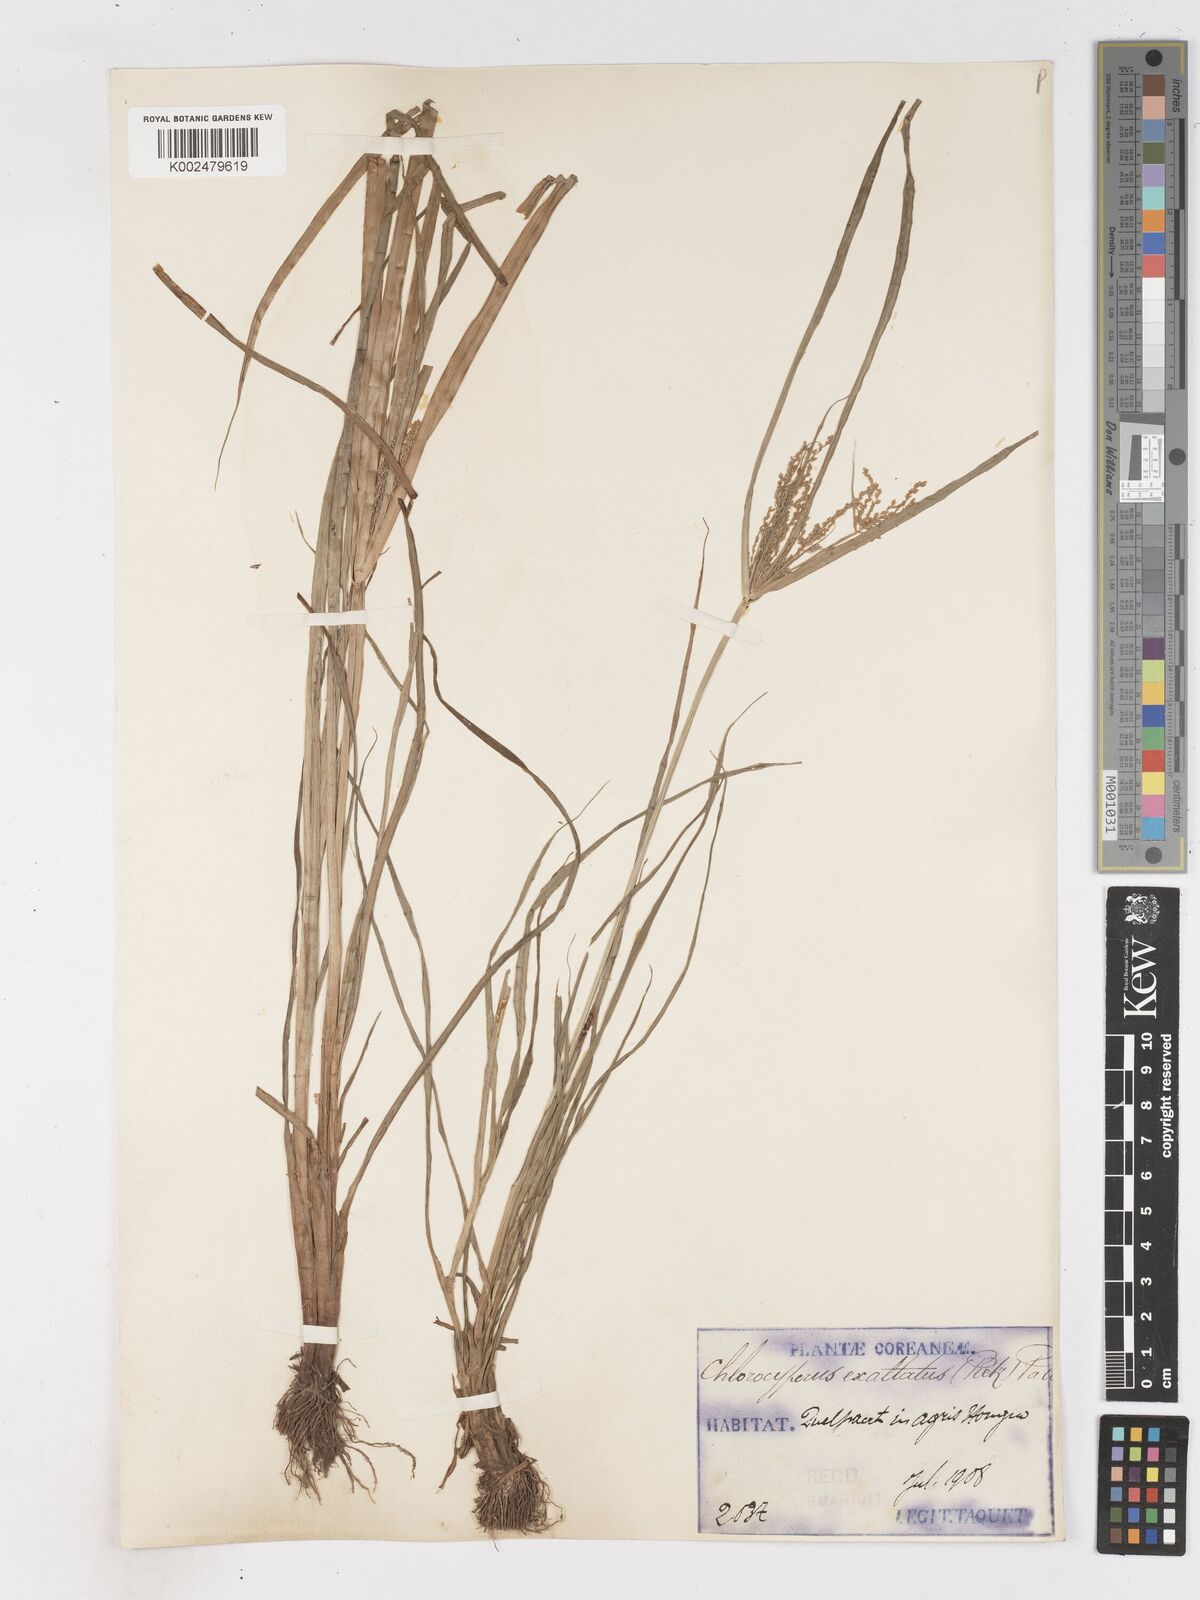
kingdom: Plantae
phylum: Tracheophyta
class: Liliopsida
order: Poales
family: Cyperaceae
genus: Cyperus
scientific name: Cyperus exaltatus
